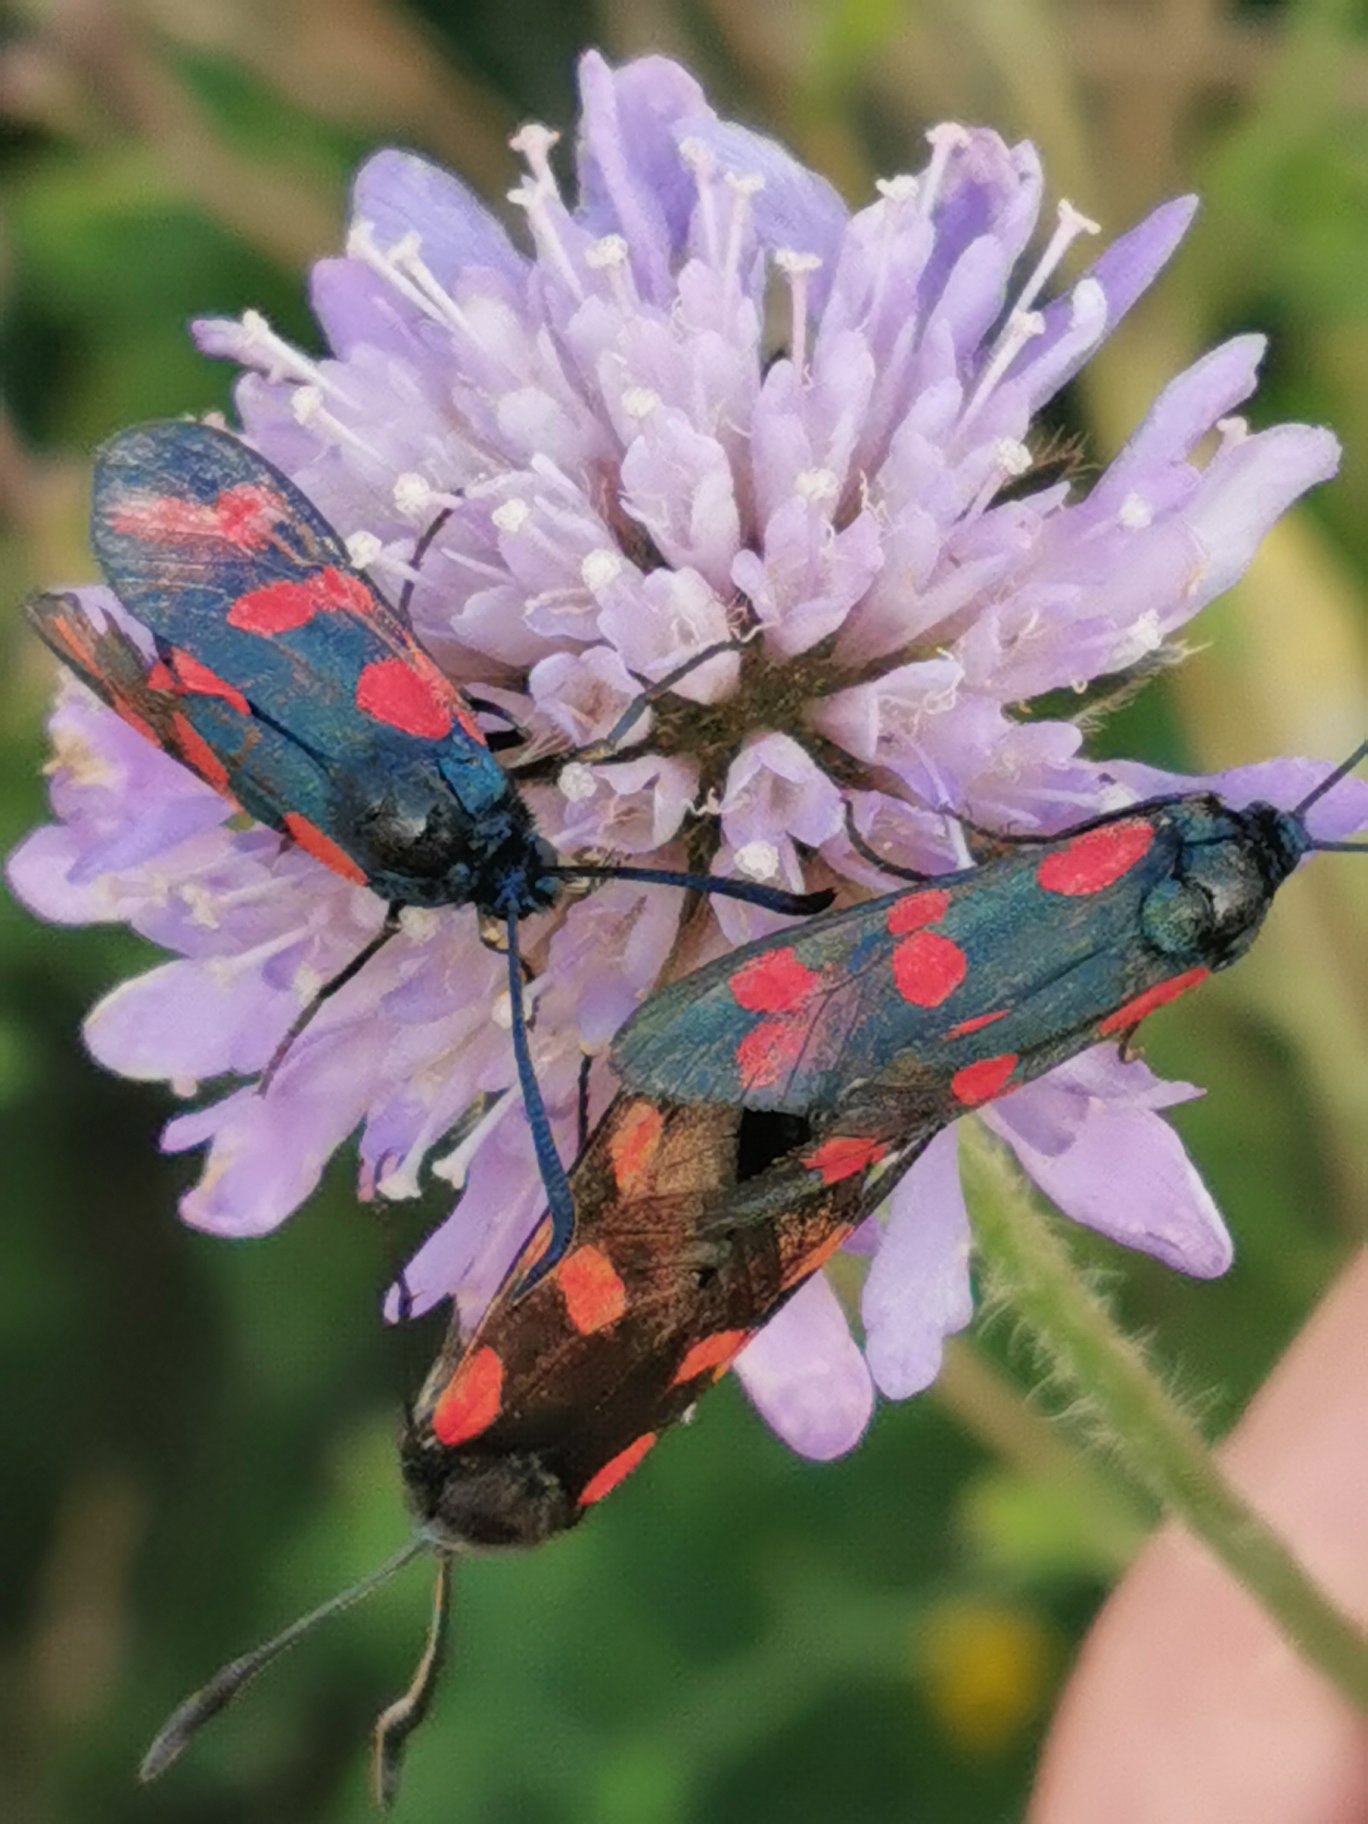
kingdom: Animalia
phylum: Arthropoda
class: Insecta
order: Lepidoptera
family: Zygaenidae
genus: Zygaena
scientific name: Zygaena filipendulae
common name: Seksplettet køllesværmer
